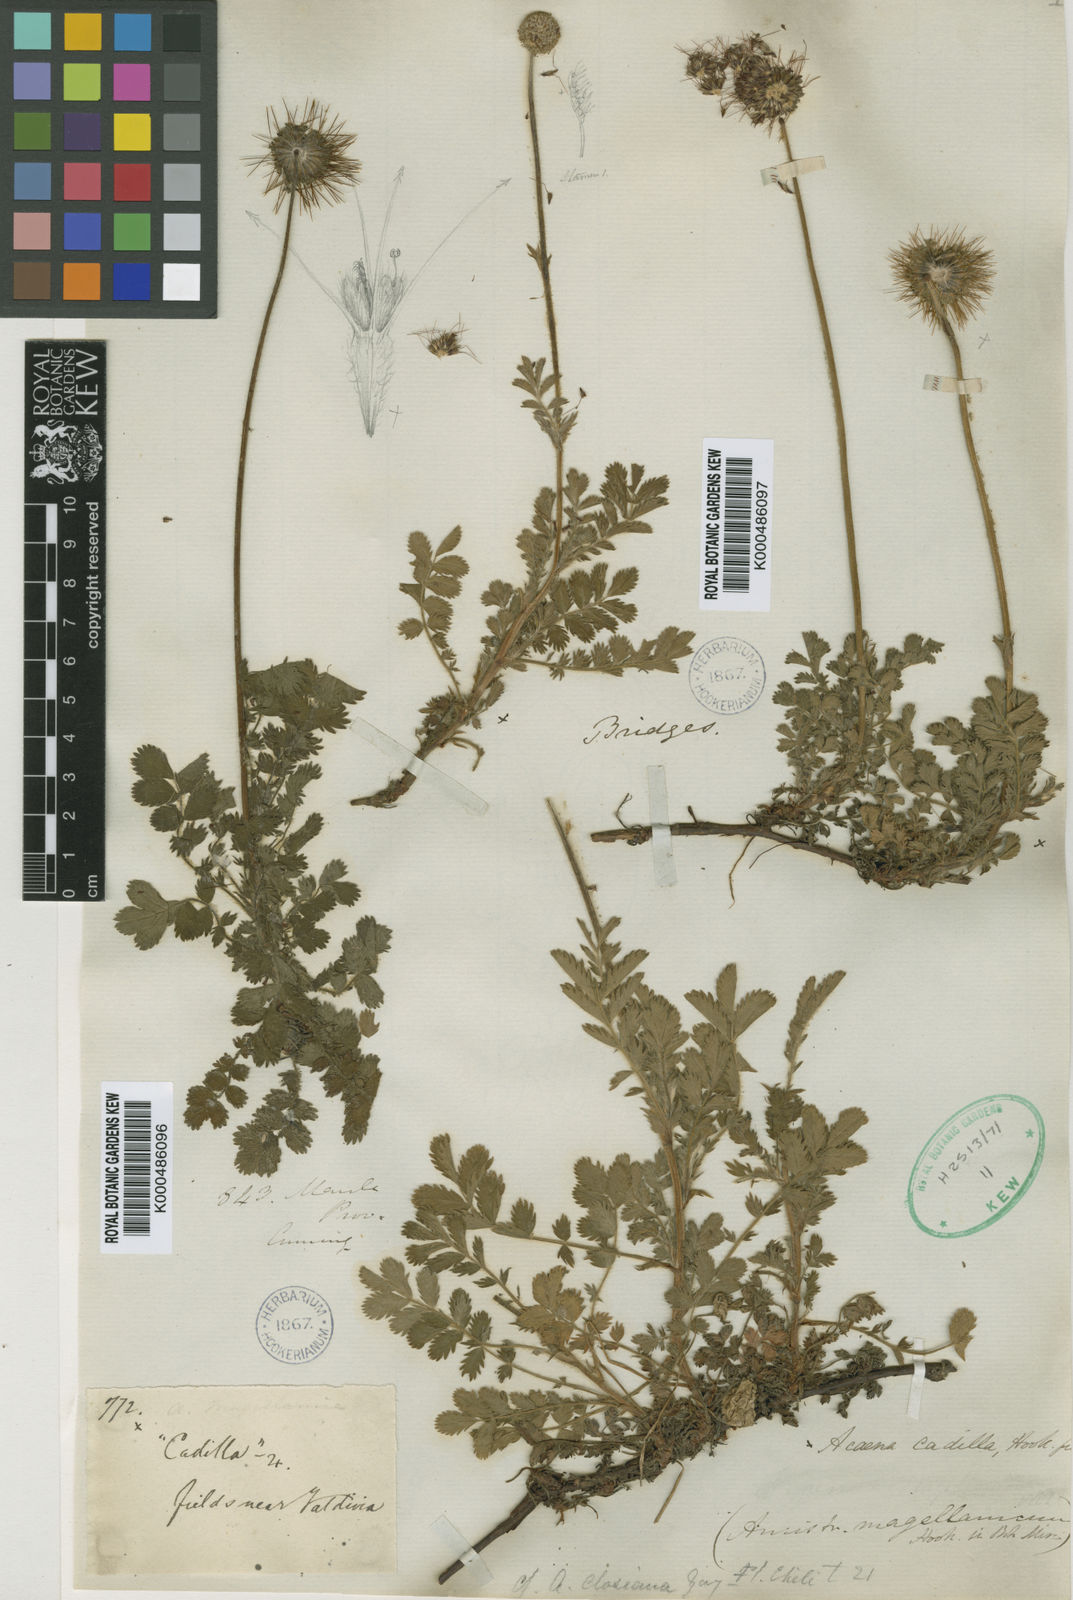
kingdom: Plantae
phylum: Tracheophyta
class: Magnoliopsida
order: Rosales
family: Rosaceae
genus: Acaena
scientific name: Acaena ovalifolia
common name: Two-spined acaena
